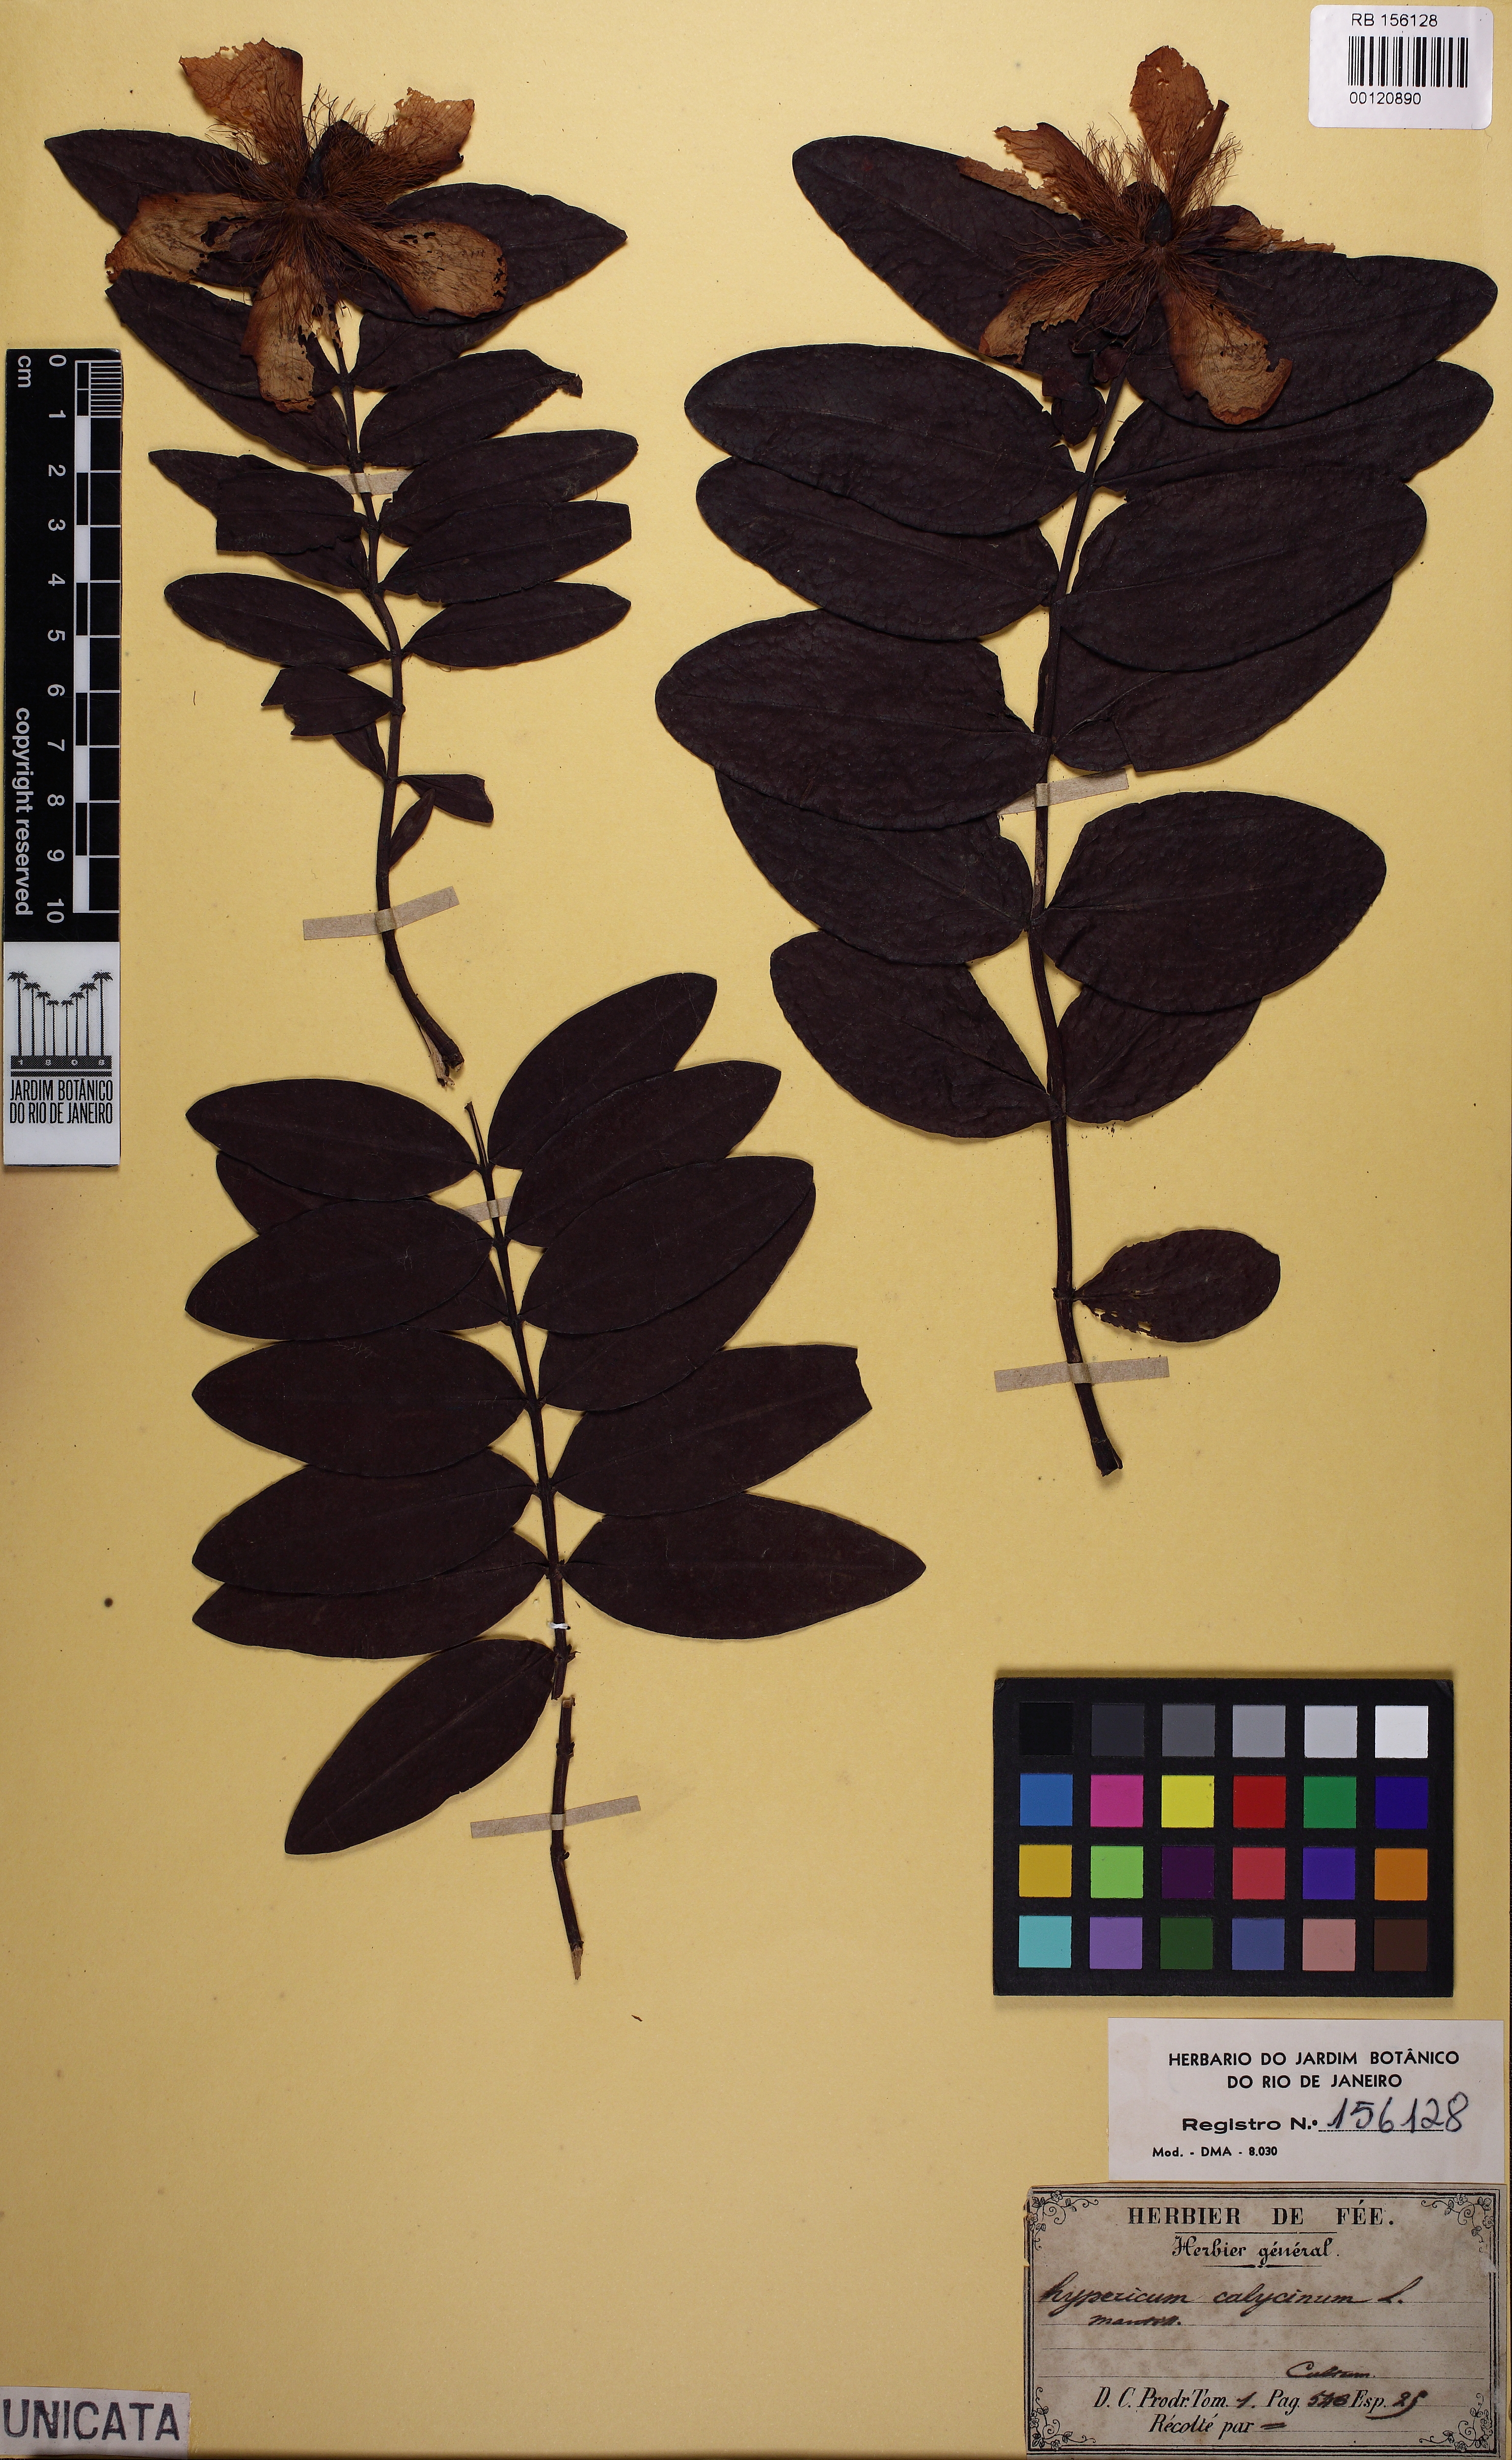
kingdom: Plantae
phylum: Tracheophyta
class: Magnoliopsida
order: Malpighiales
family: Hypericaceae
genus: Hypericum
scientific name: Hypericum calycinum
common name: Rose-of-sharon
